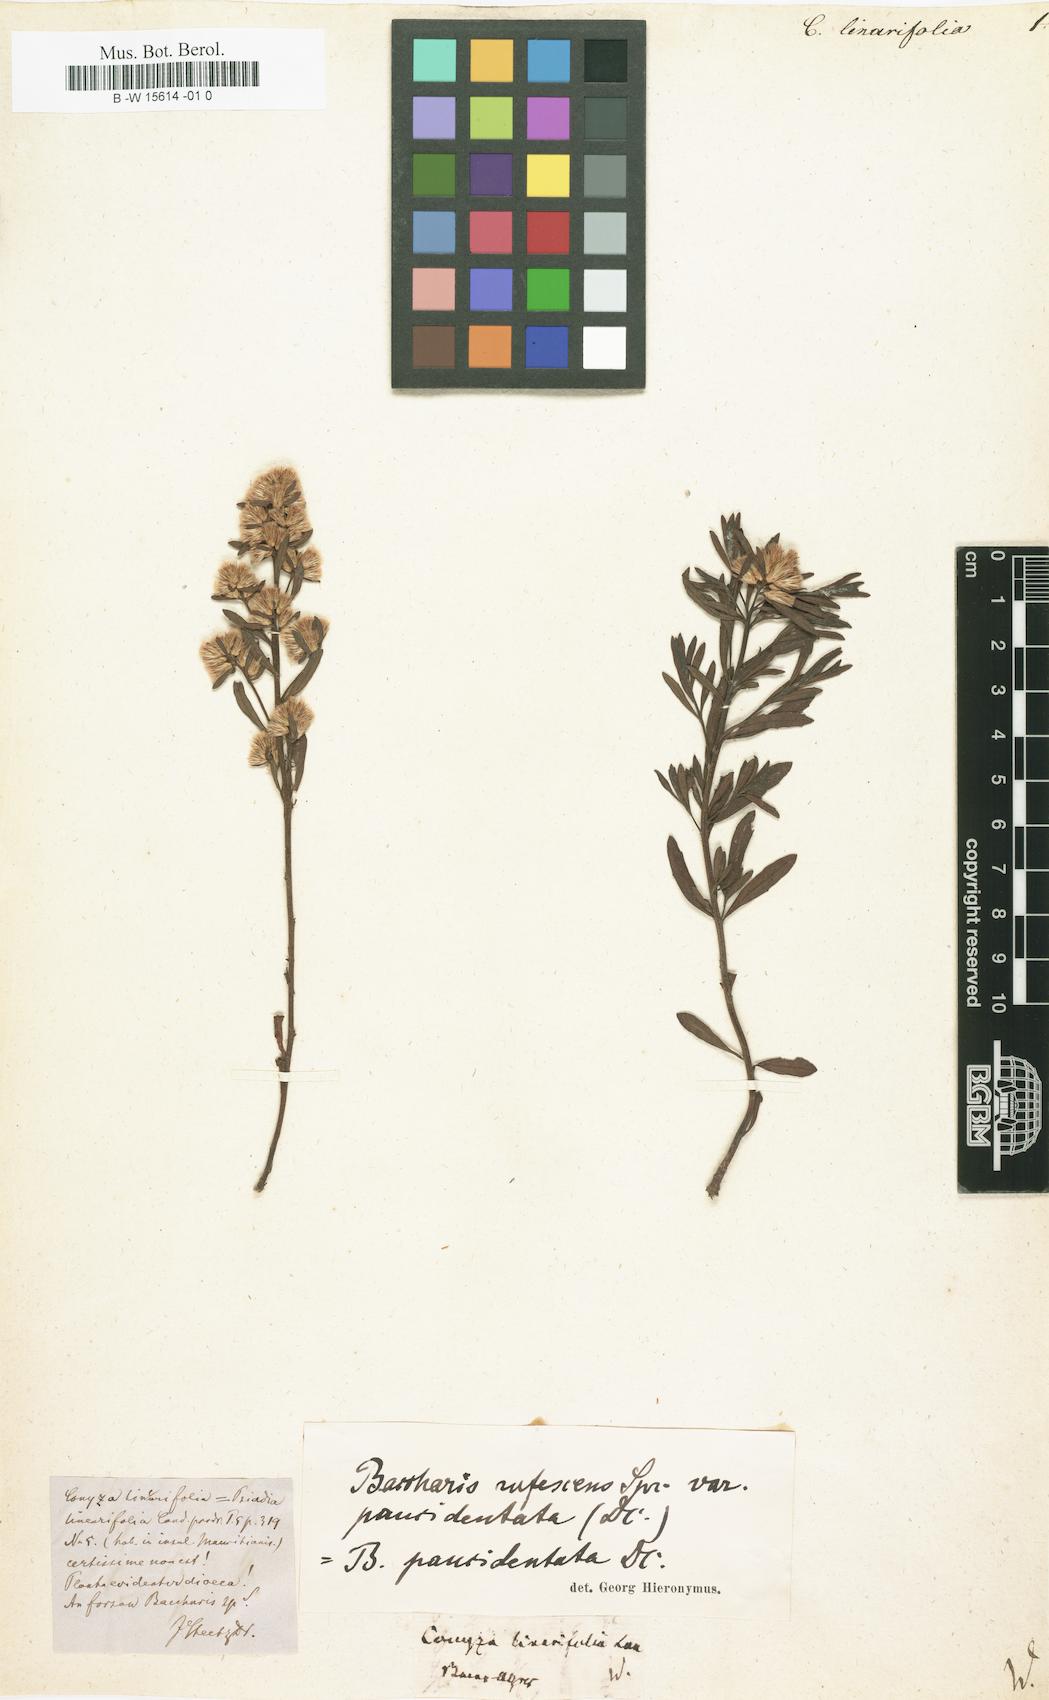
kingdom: Plantae
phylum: Tracheophyta
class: Magnoliopsida
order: Asterales
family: Asteraceae
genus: Baccharis
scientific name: Baccharis
